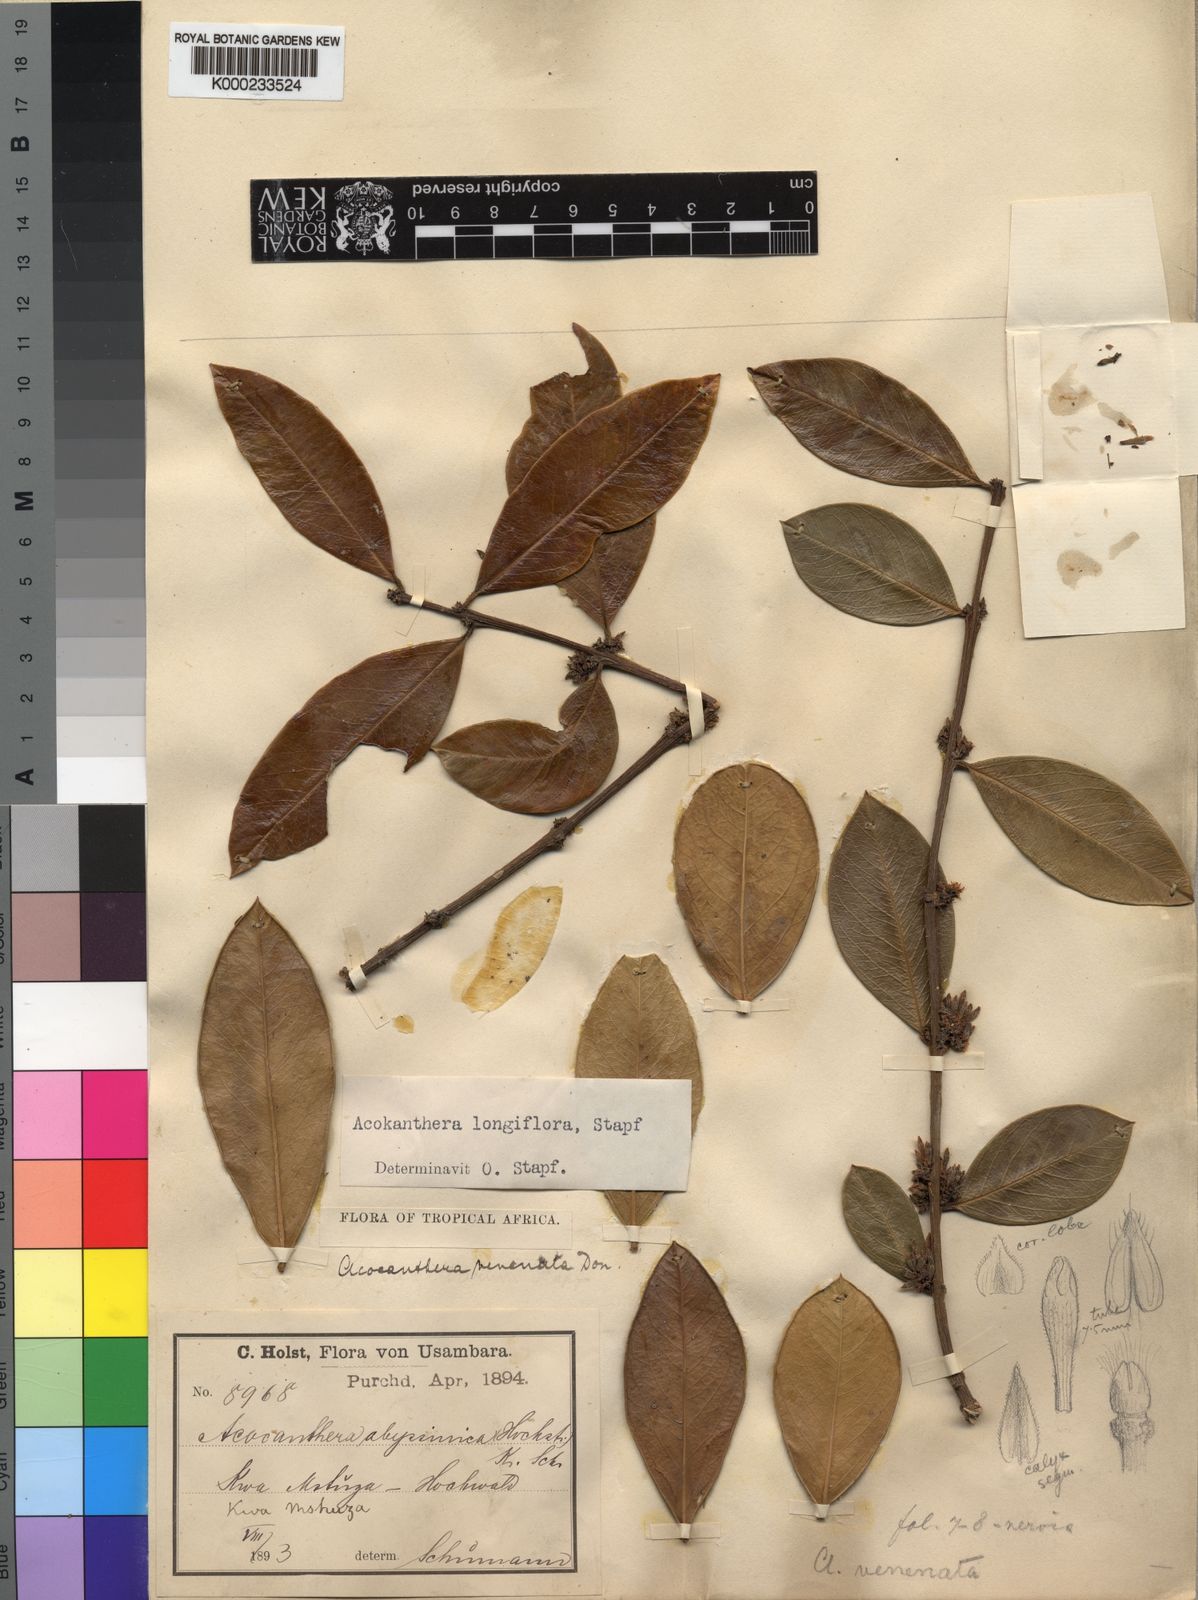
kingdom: Plantae
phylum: Tracheophyta
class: Magnoliopsida
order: Gentianales
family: Apocynaceae
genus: Acokanthera
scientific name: Acokanthera oppositifolia
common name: Bushman's-poison
